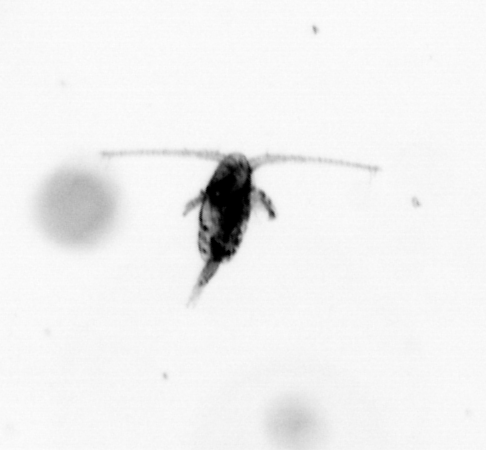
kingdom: Animalia
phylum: Arthropoda
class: Copepoda
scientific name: Copepoda
